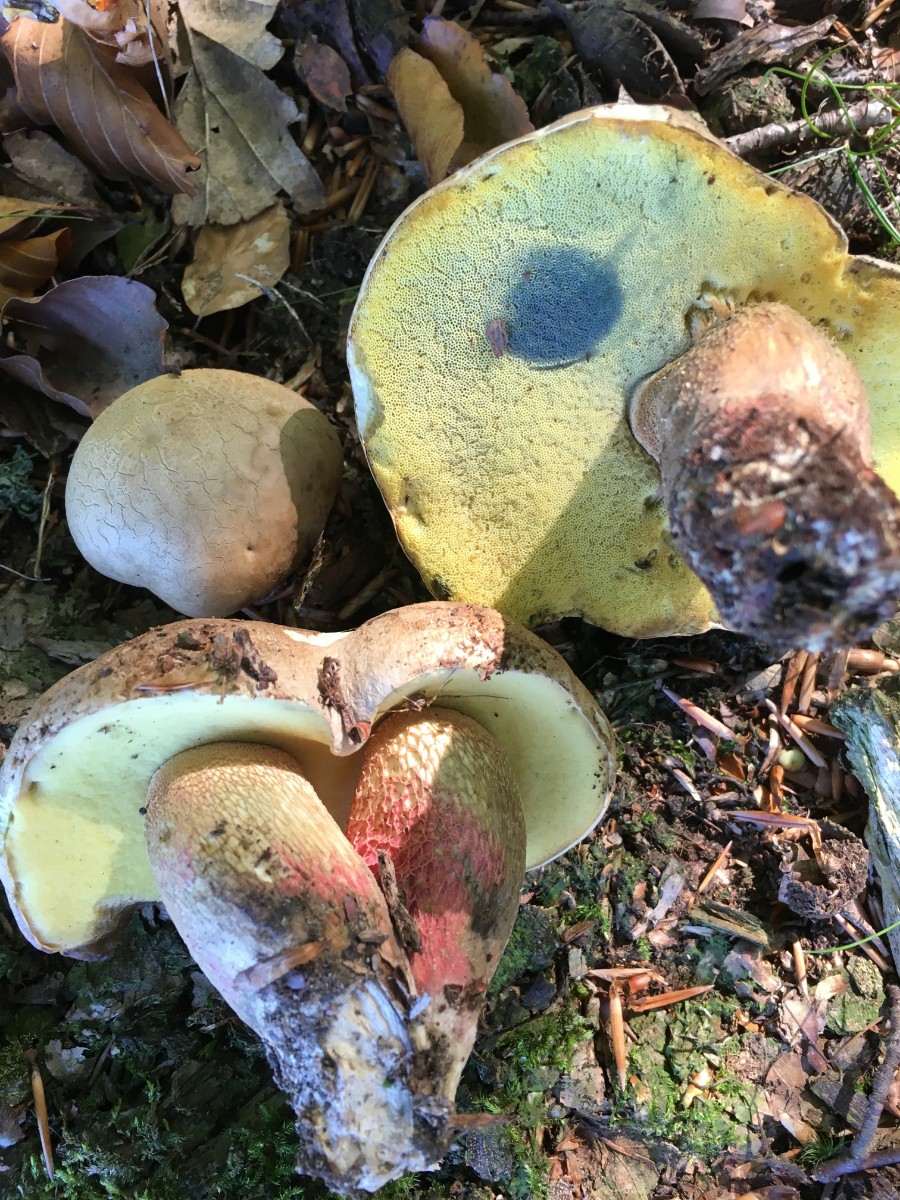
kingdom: Fungi
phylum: Basidiomycota
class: Agaricomycetes
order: Boletales
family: Boletaceae
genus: Caloboletus
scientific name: Caloboletus calopus
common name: skønfodet rørhat
